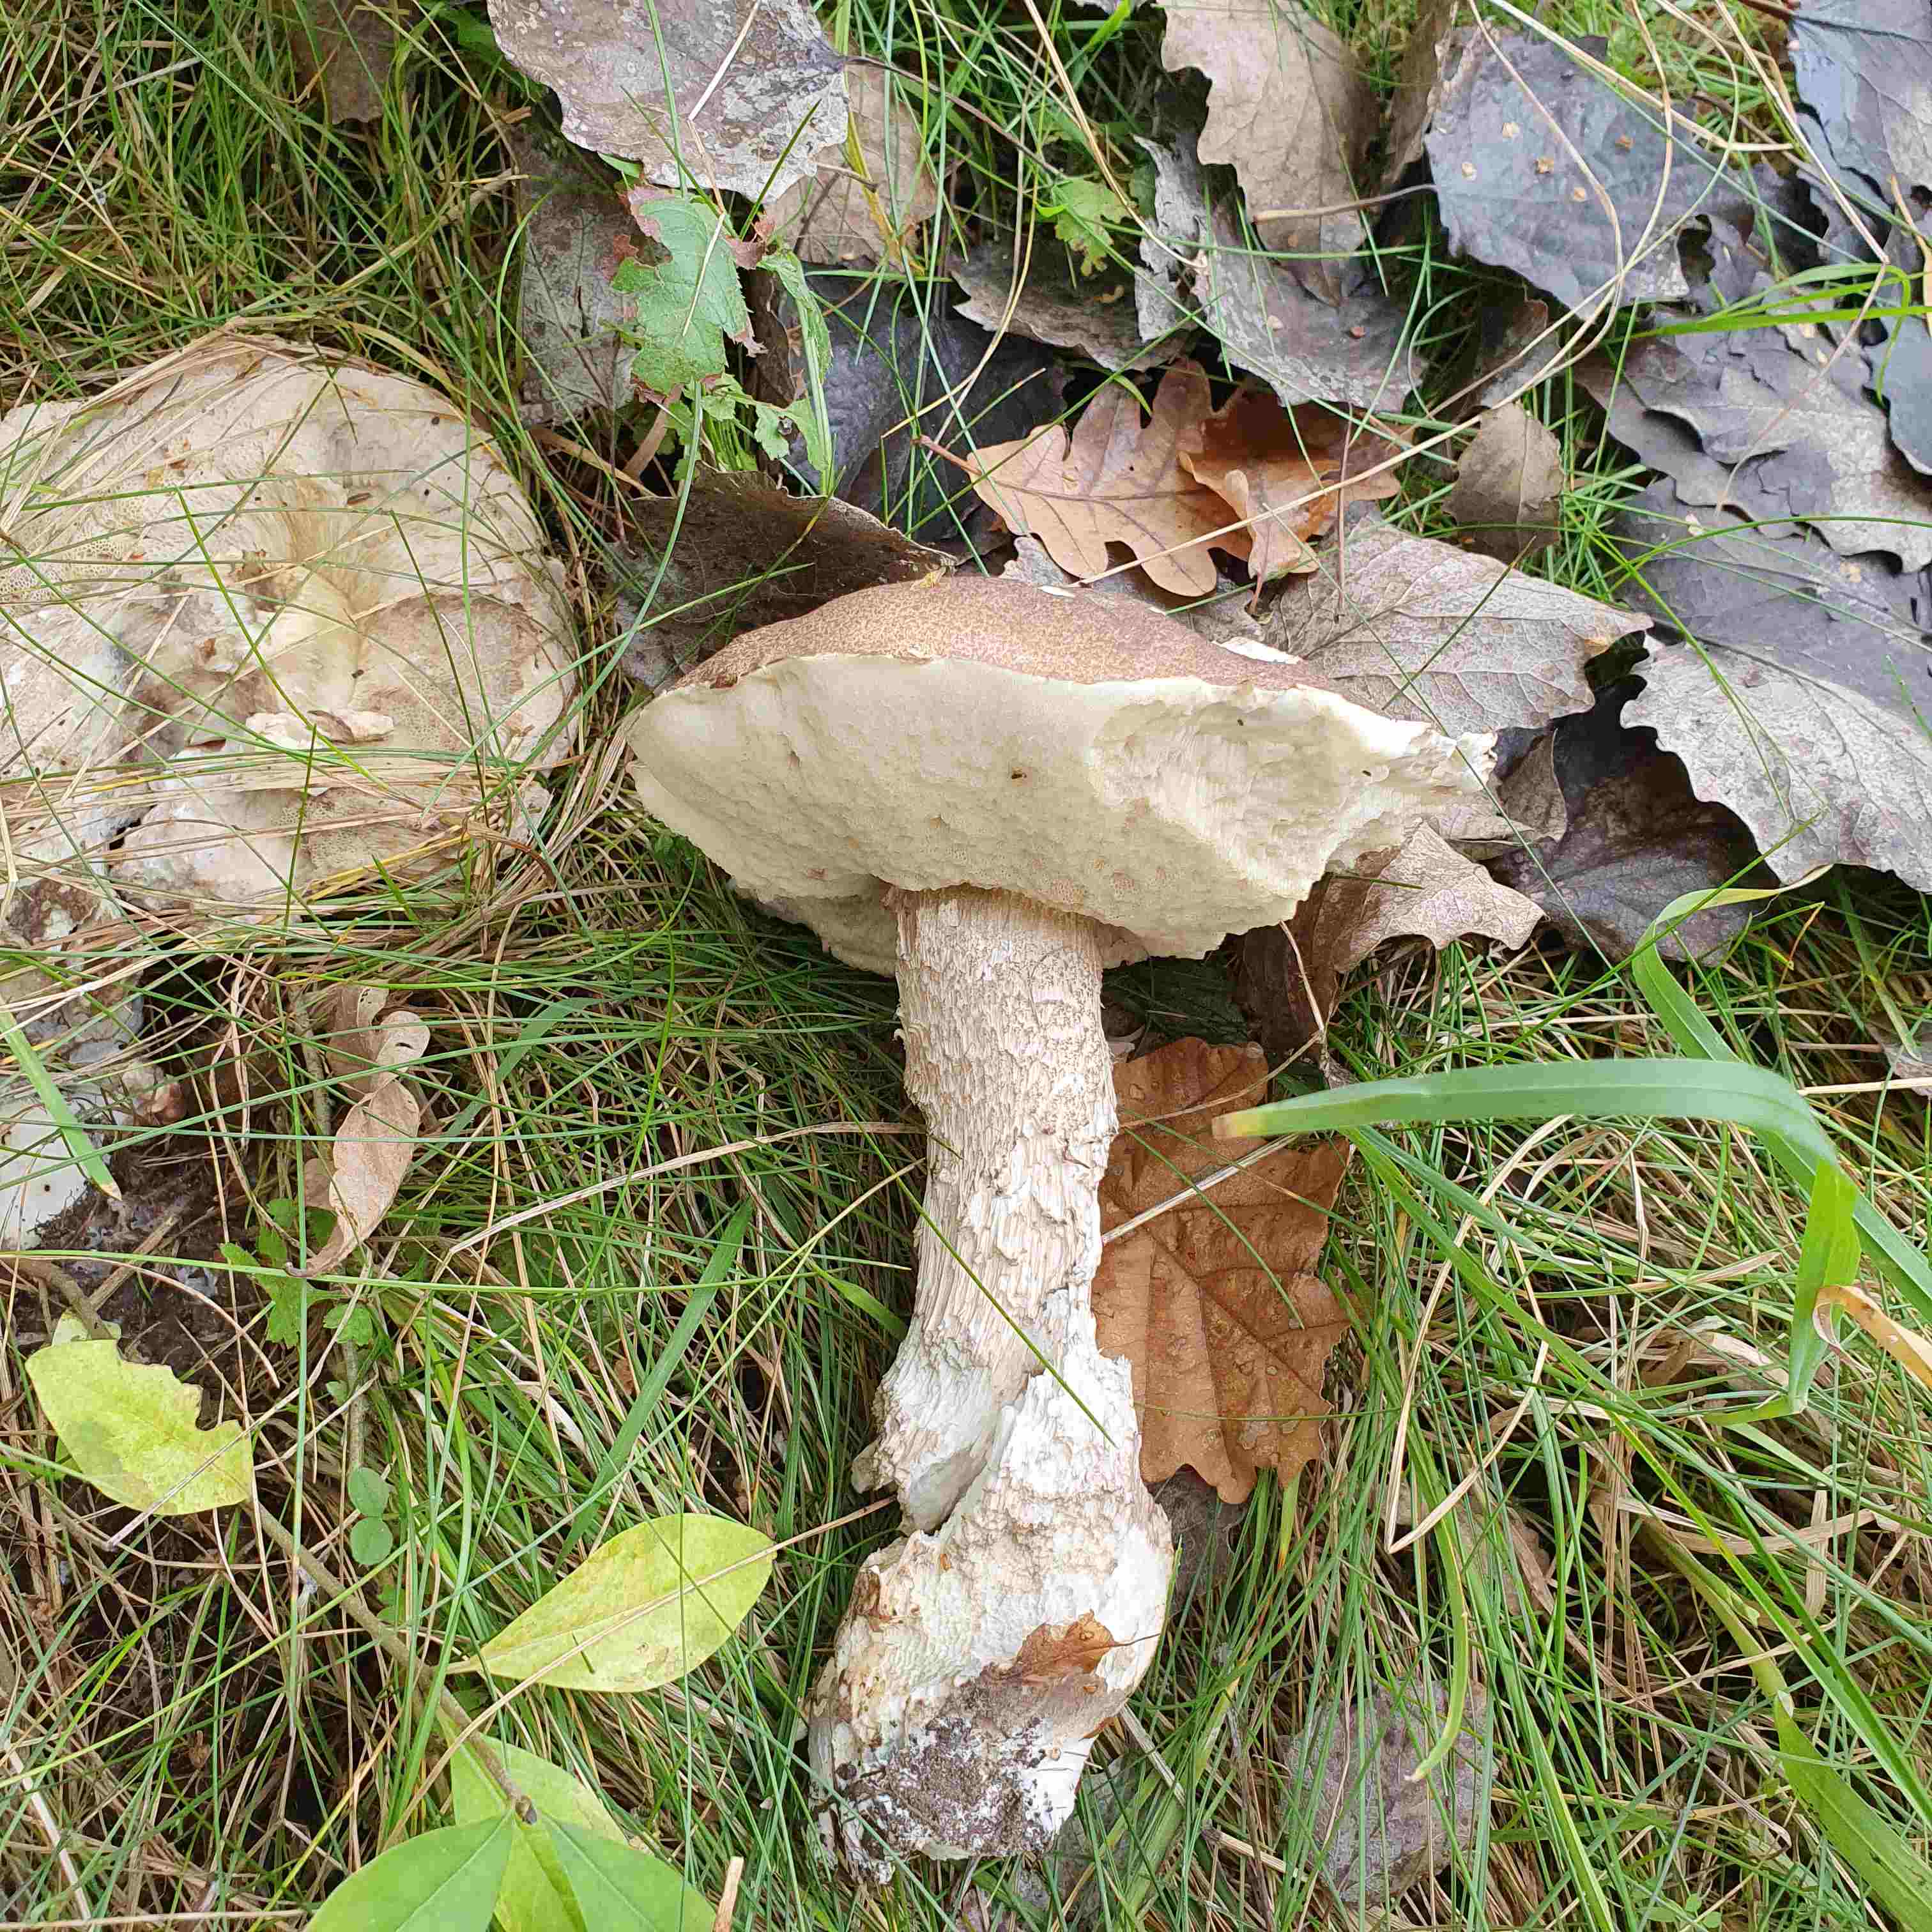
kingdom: Fungi
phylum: Basidiomycota
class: Agaricomycetes
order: Boletales
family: Boletaceae
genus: Leccinum
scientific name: Leccinum duriusculum
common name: poppel-skælrørhat
